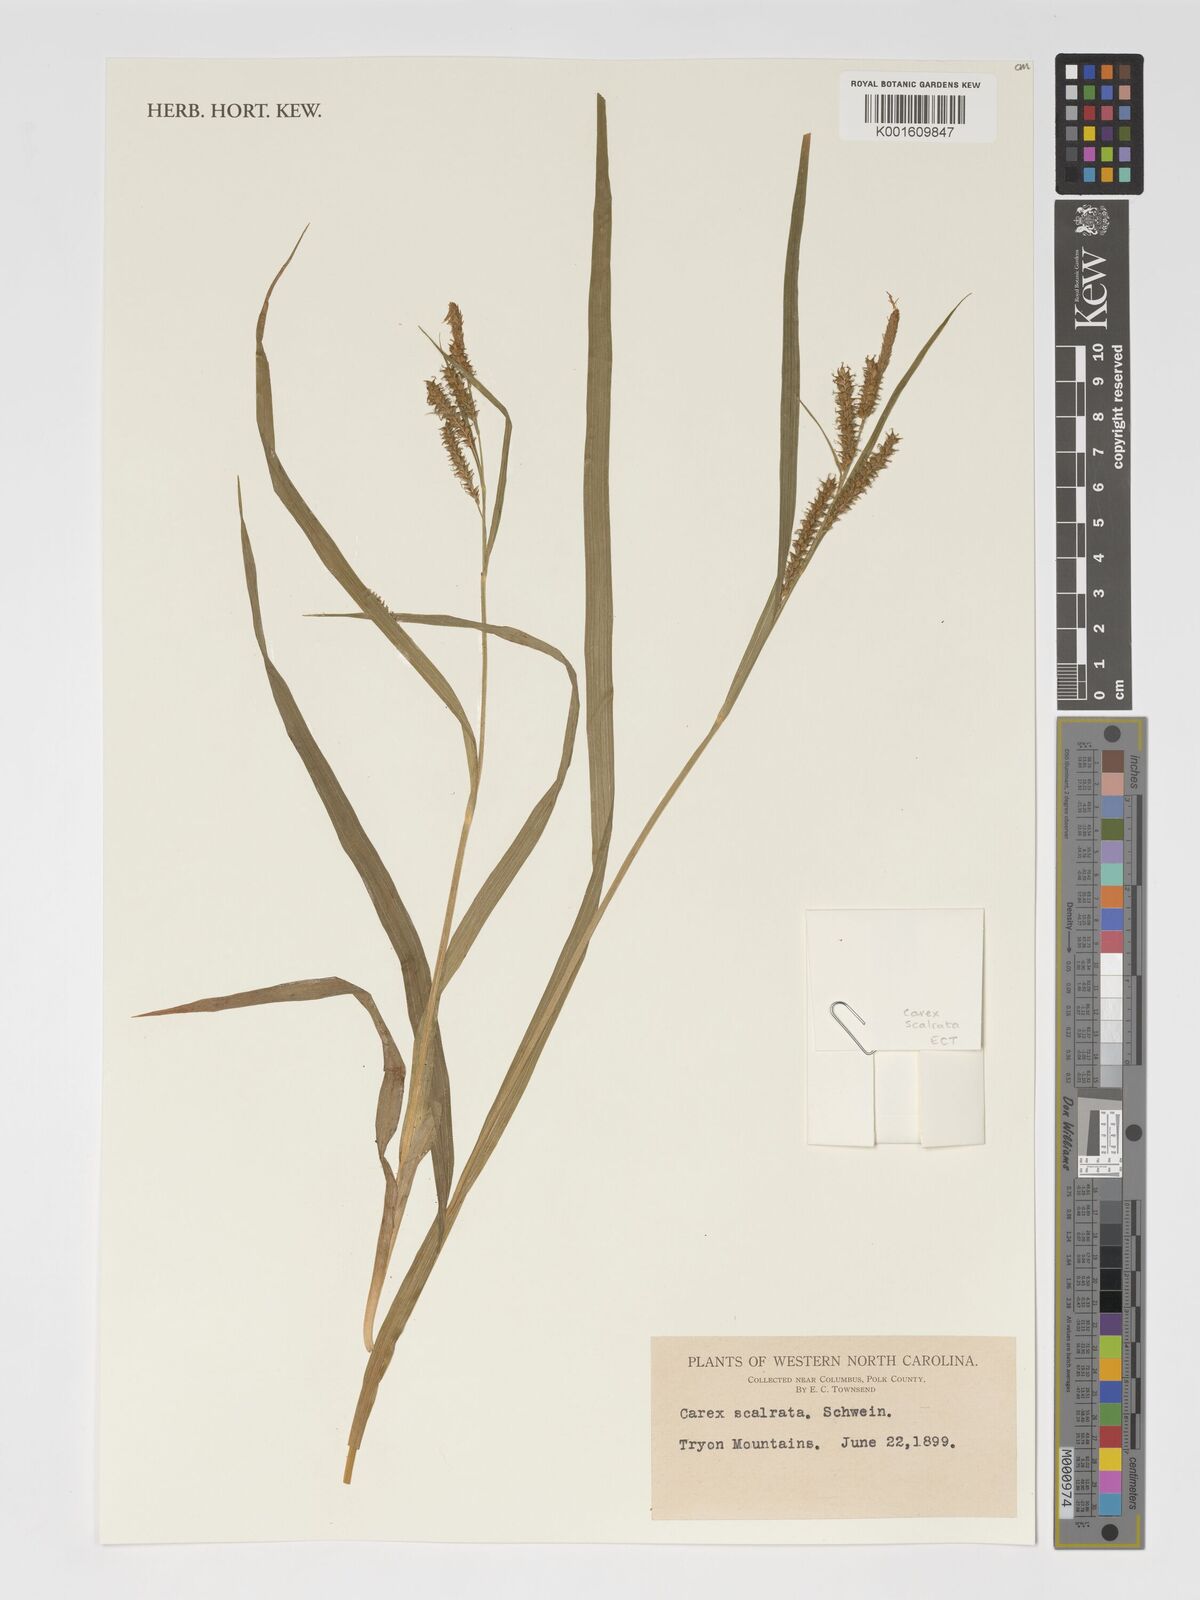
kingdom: Plantae
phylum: Tracheophyta
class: Liliopsida
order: Poales
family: Cyperaceae
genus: Carex
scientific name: Carex scabrata
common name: Eastern rough sedge
